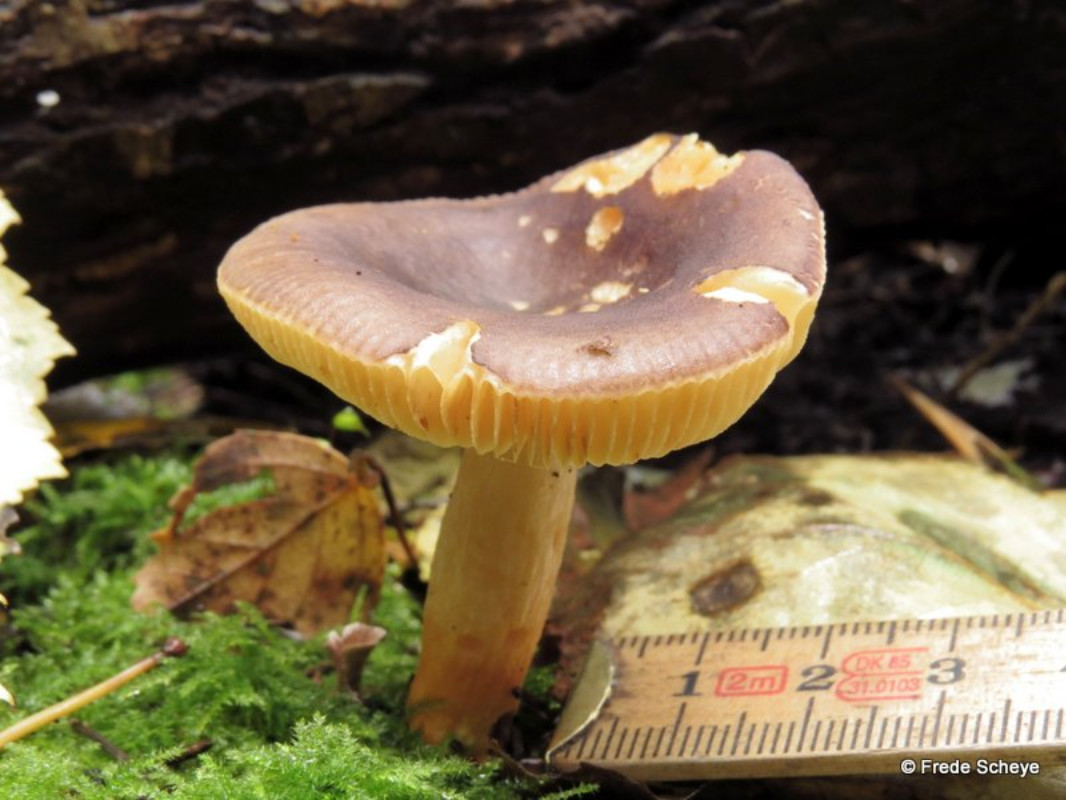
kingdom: Fungi
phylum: Basidiomycota
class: Agaricomycetes
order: Russulales
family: Russulaceae
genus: Russula
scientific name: Russula puellaris
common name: gulstokket skørhat
